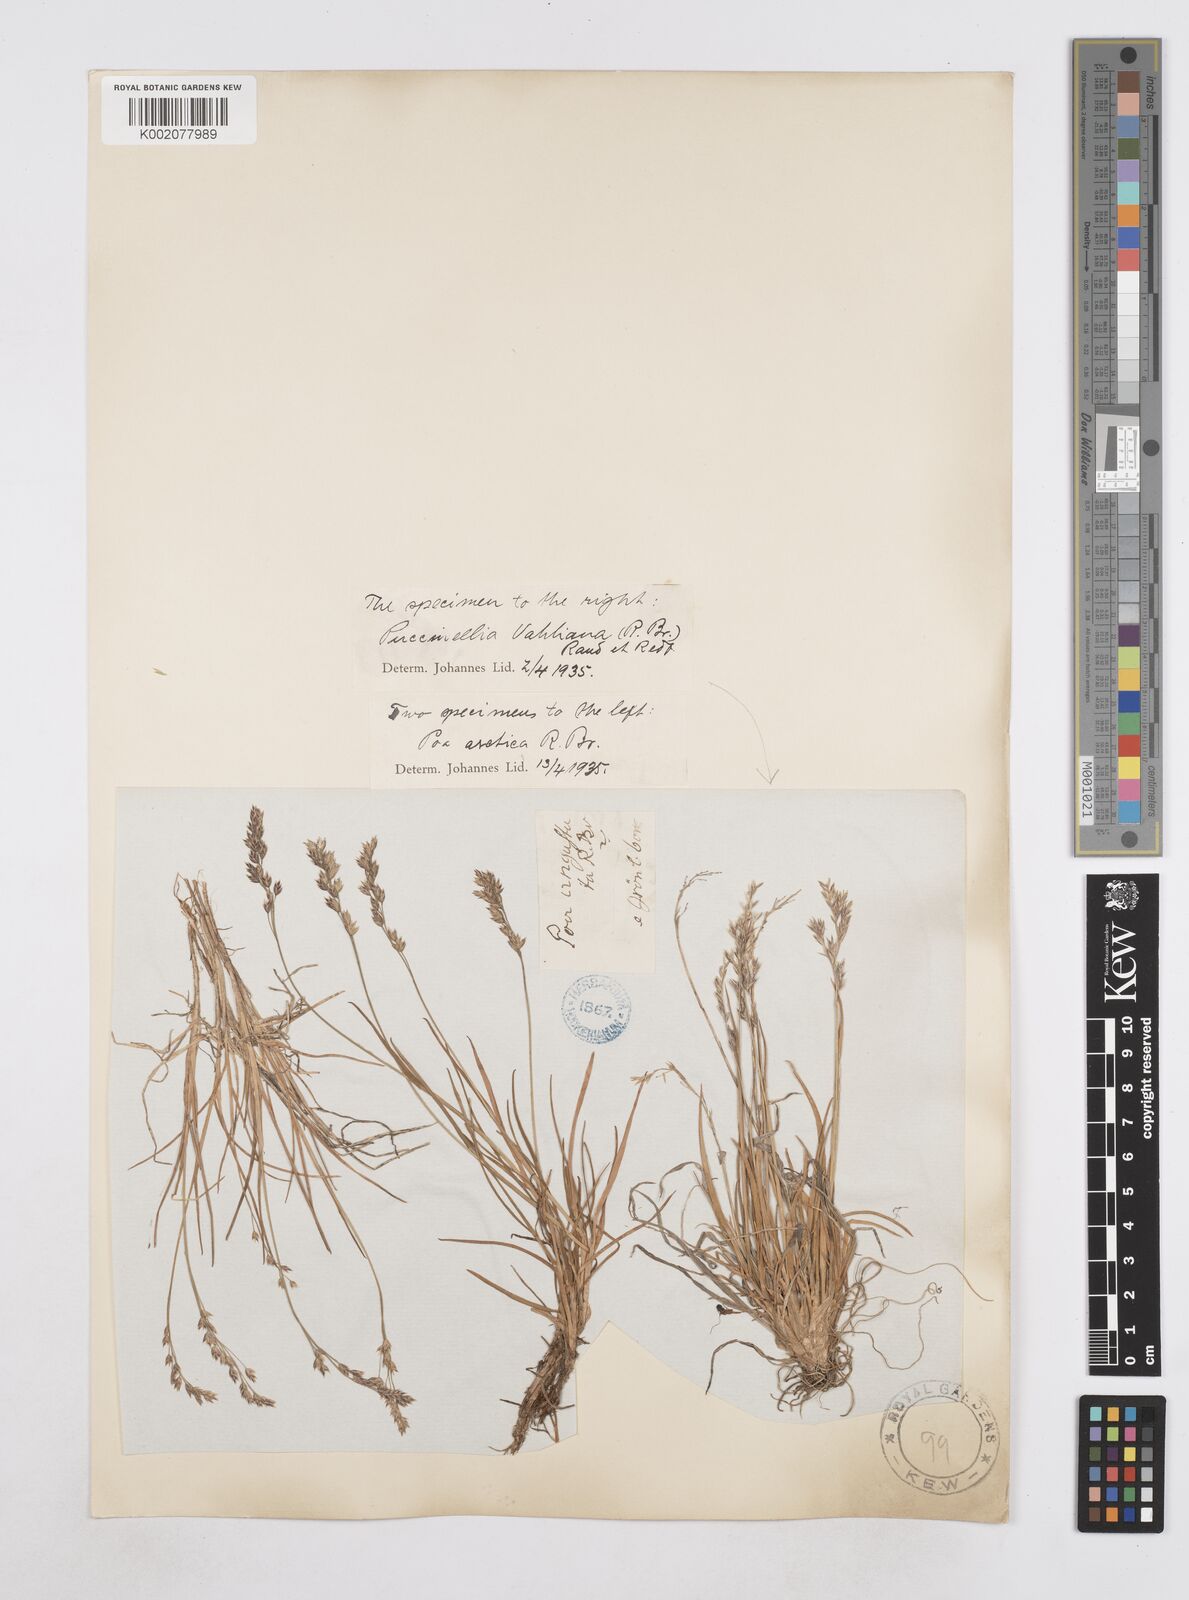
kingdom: Plantae
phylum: Tracheophyta
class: Liliopsida
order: Poales
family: Poaceae
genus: Poa
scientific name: Poa arctica
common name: Arctic bluegrass
